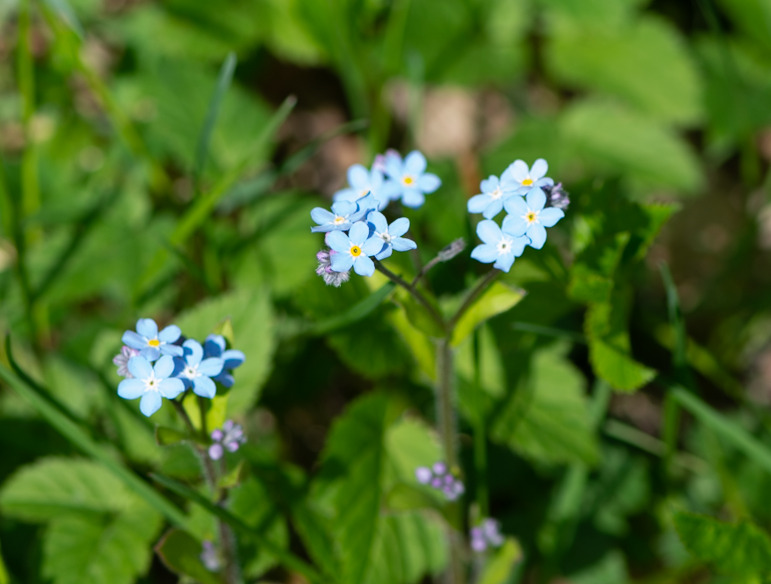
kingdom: Plantae
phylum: Tracheophyta
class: Magnoliopsida
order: Boraginales
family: Boraginaceae
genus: Myosotis
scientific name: Myosotis sylvatica
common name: Skov-forglemmigej
